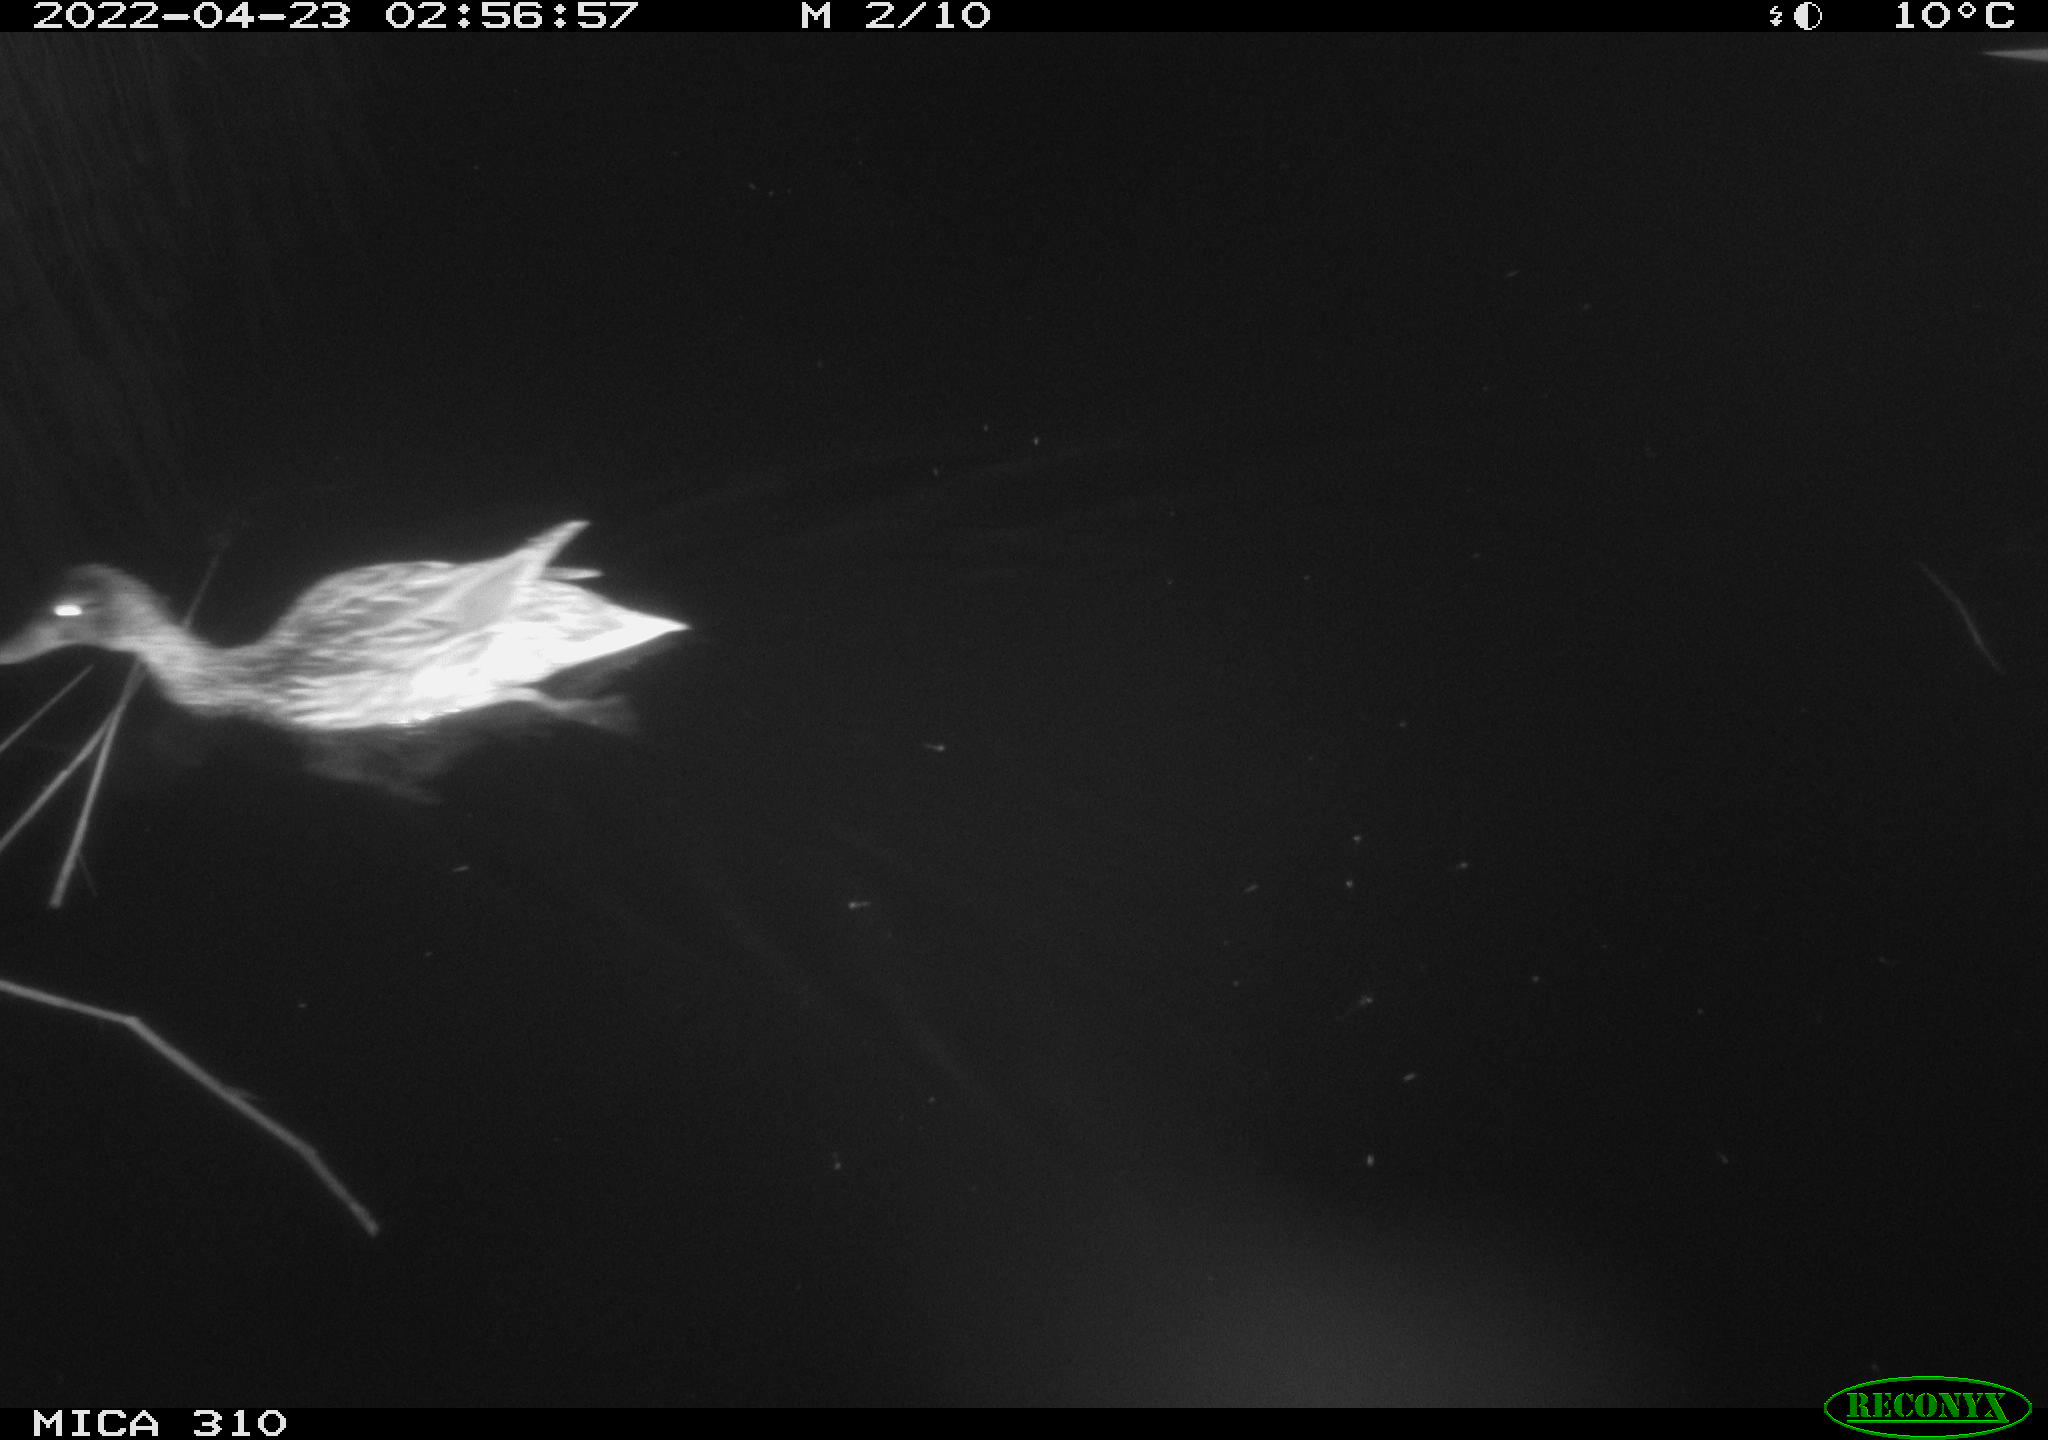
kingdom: Animalia
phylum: Chordata
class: Aves
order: Anseriformes
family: Anatidae
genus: Anas
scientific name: Anas platyrhynchos
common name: Mallard
